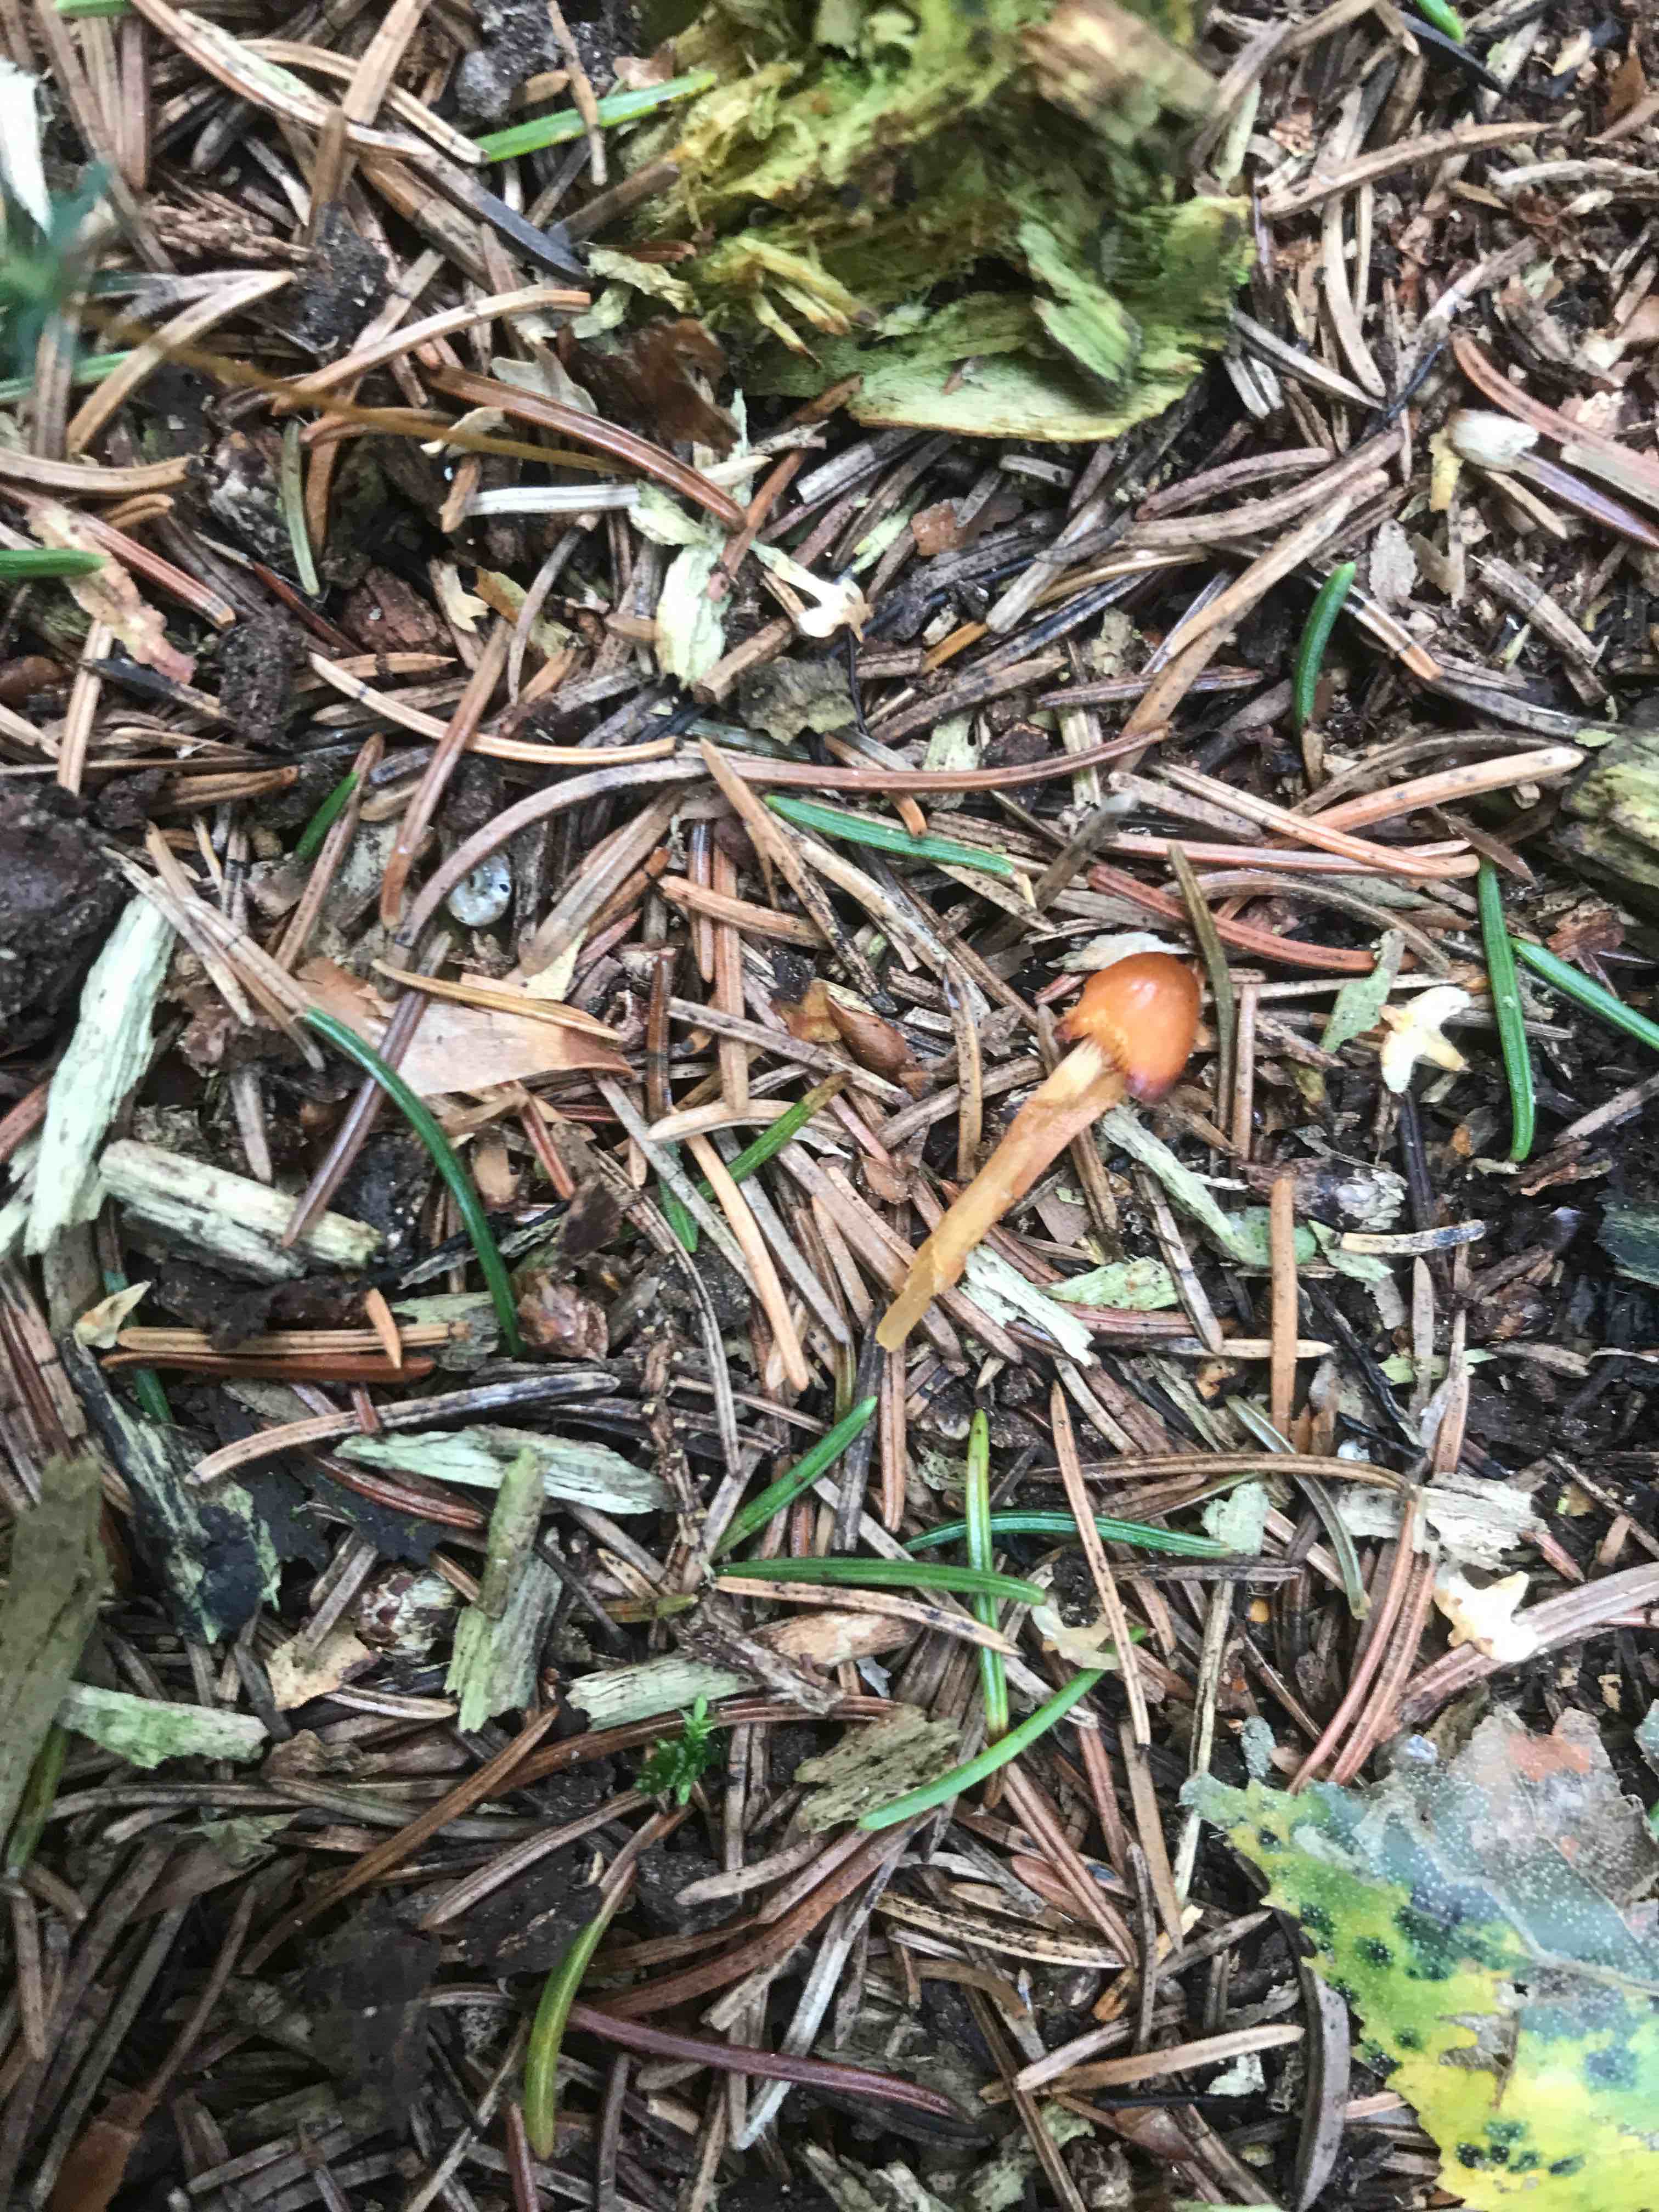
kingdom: Fungi
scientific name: Fungi
